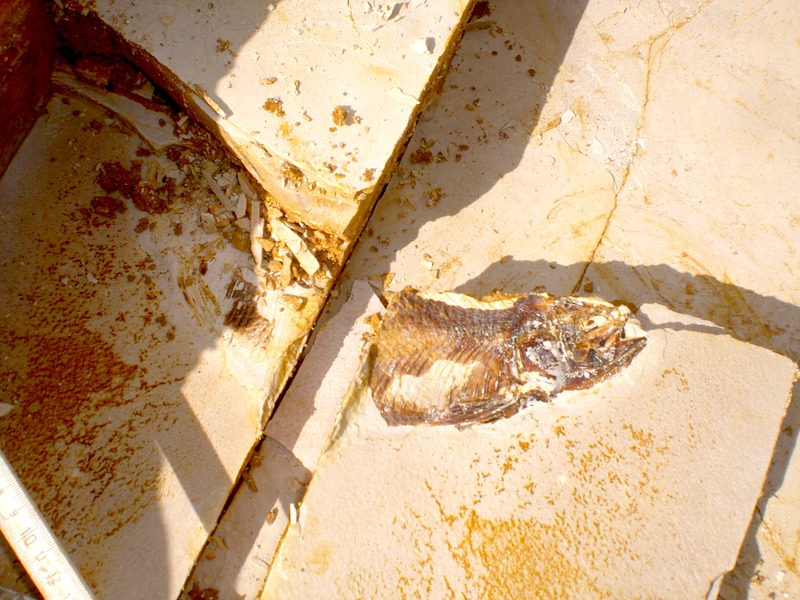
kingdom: Animalia
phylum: Chordata
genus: Thrissops
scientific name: Thrissops formosus
